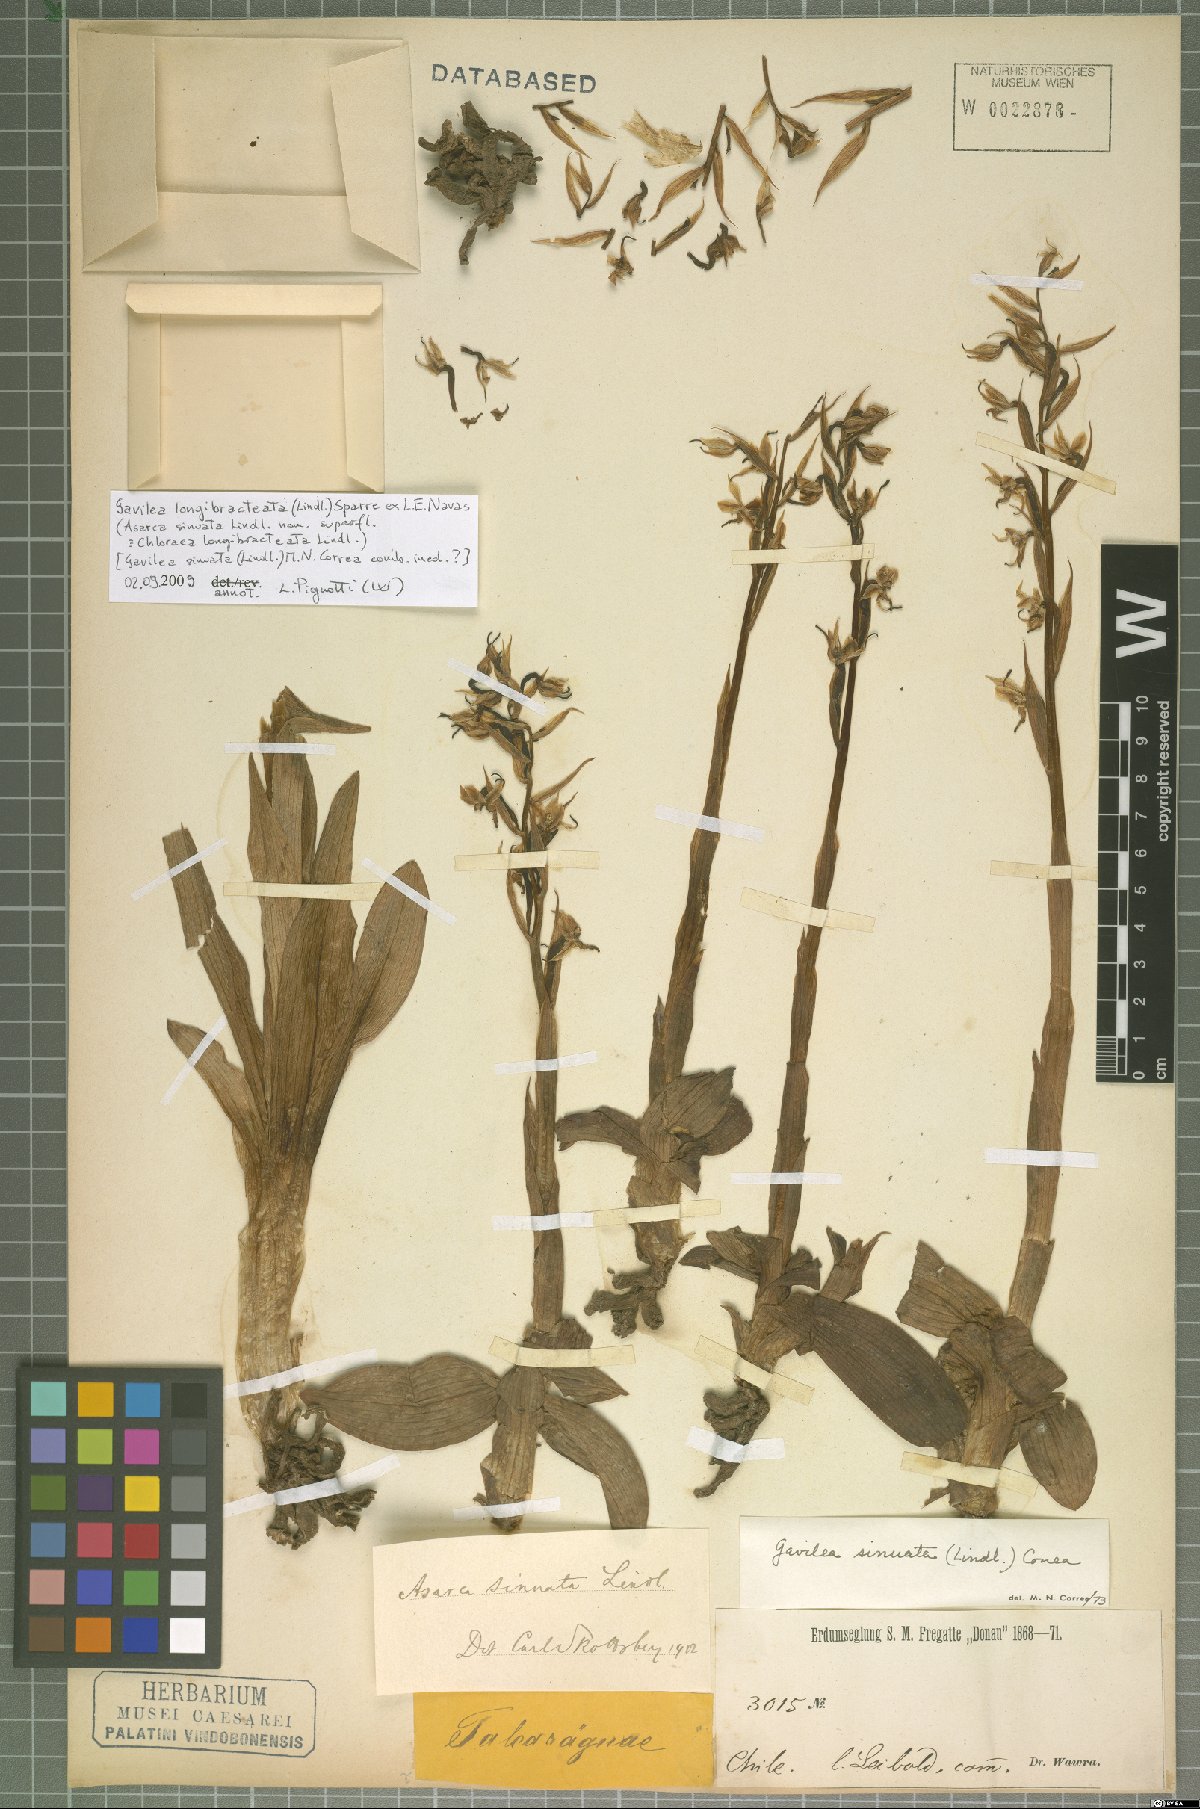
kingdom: Plantae
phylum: Tracheophyta
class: Liliopsida
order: Asparagales
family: Orchidaceae
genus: Gavilea
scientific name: Gavilea longibracteata
